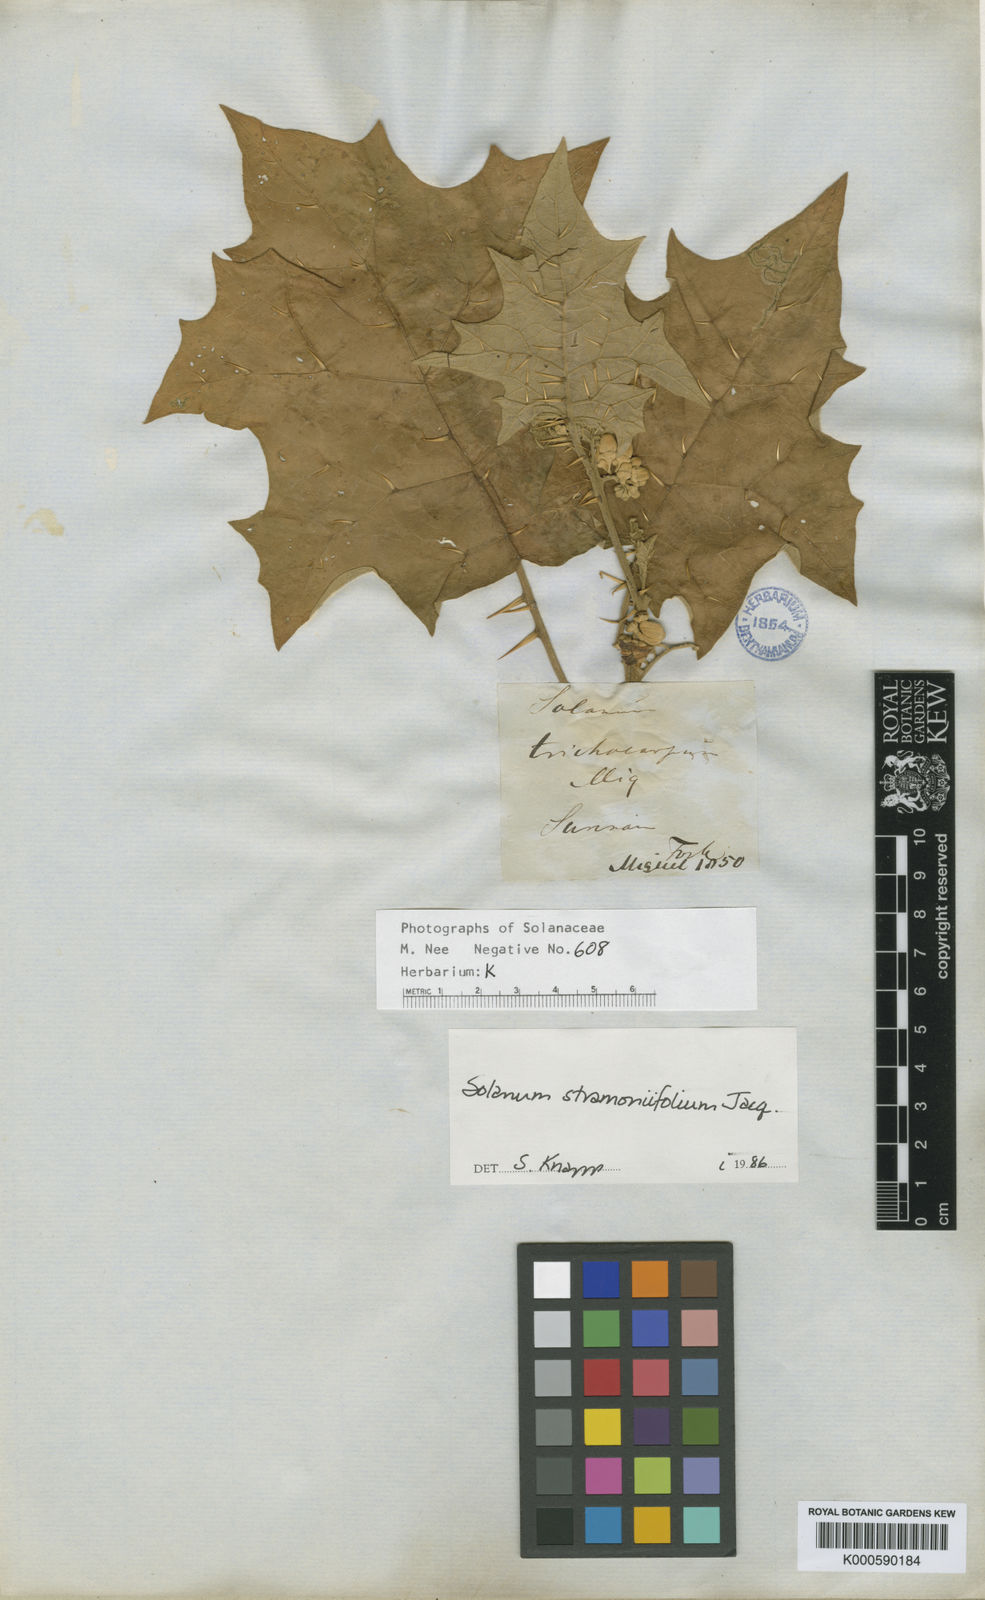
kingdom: Plantae
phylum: Tracheophyta
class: Magnoliopsida
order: Solanales
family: Solanaceae
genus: Solanum
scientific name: Solanum stramonifolium
